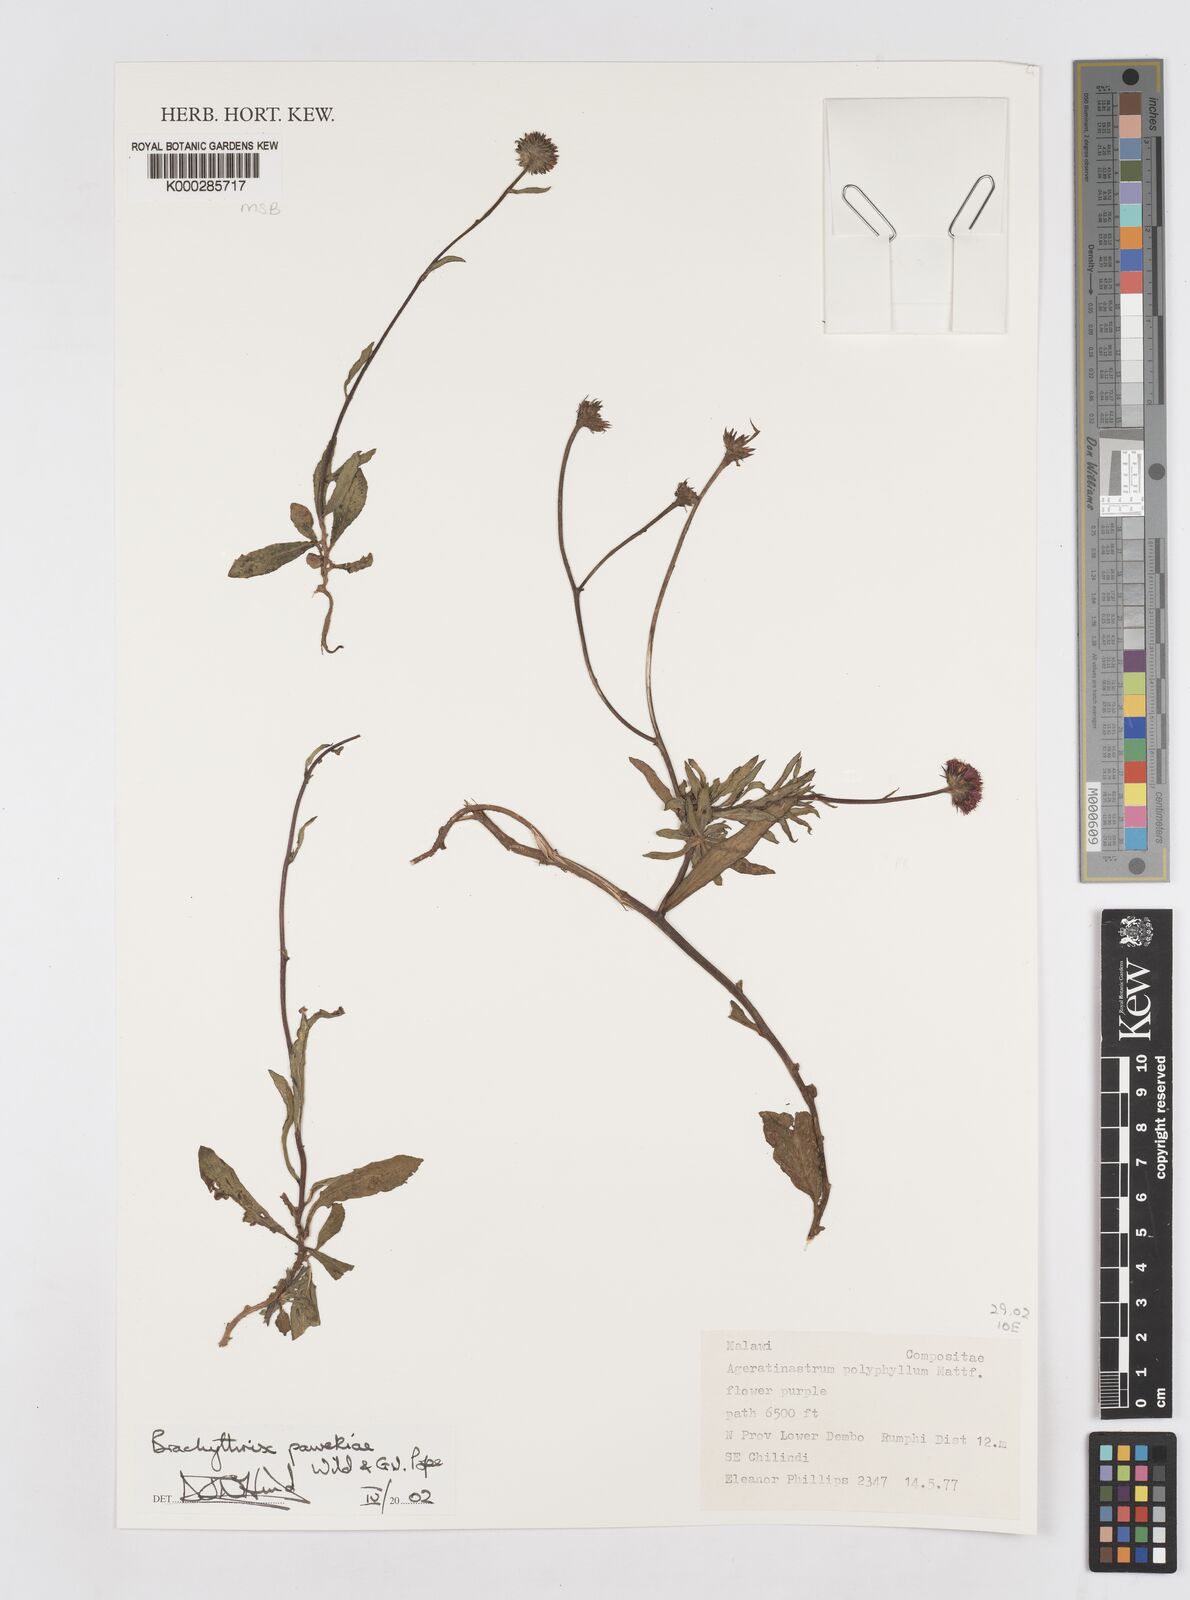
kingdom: Plantae
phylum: Tracheophyta
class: Magnoliopsida
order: Asterales
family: Asteraceae
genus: Brachythrix
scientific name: Brachythrix pawekiae
